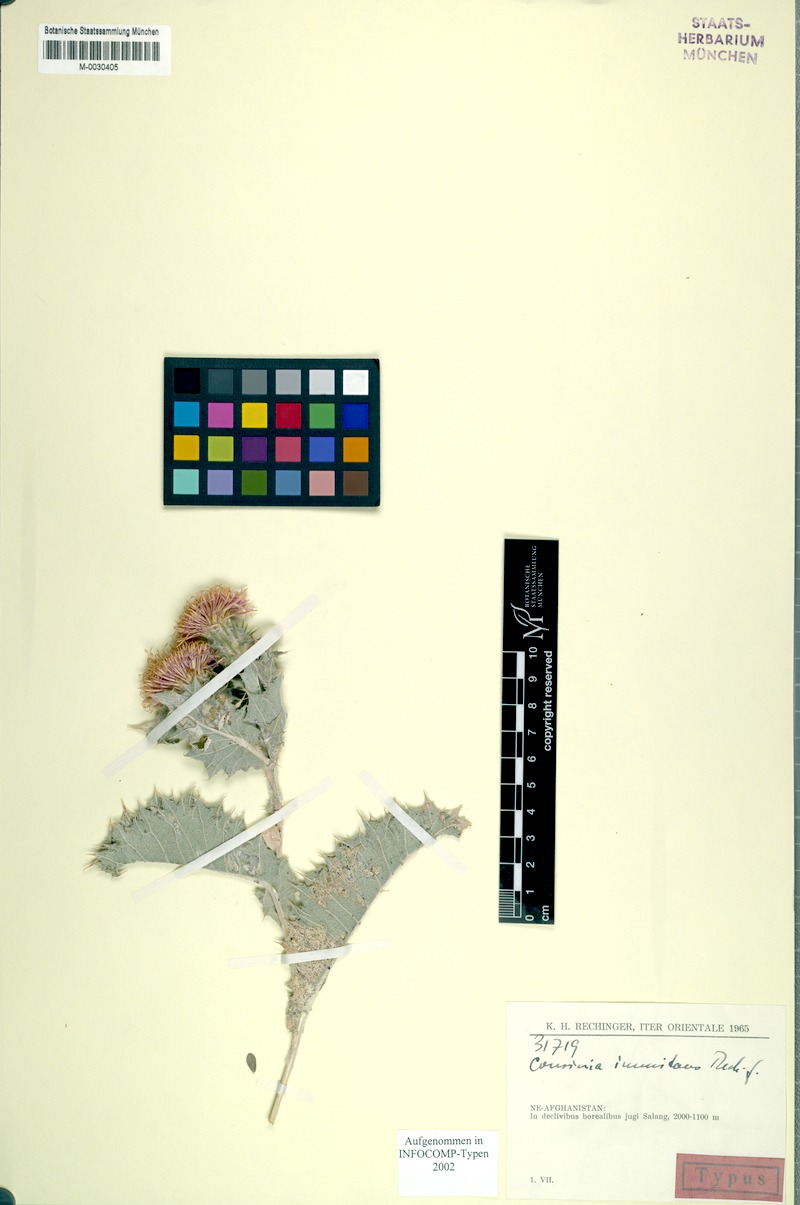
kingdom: Plantae
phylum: Tracheophyta
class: Magnoliopsida
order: Asterales
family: Asteraceae
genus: Cousinia
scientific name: Cousinia immitans
